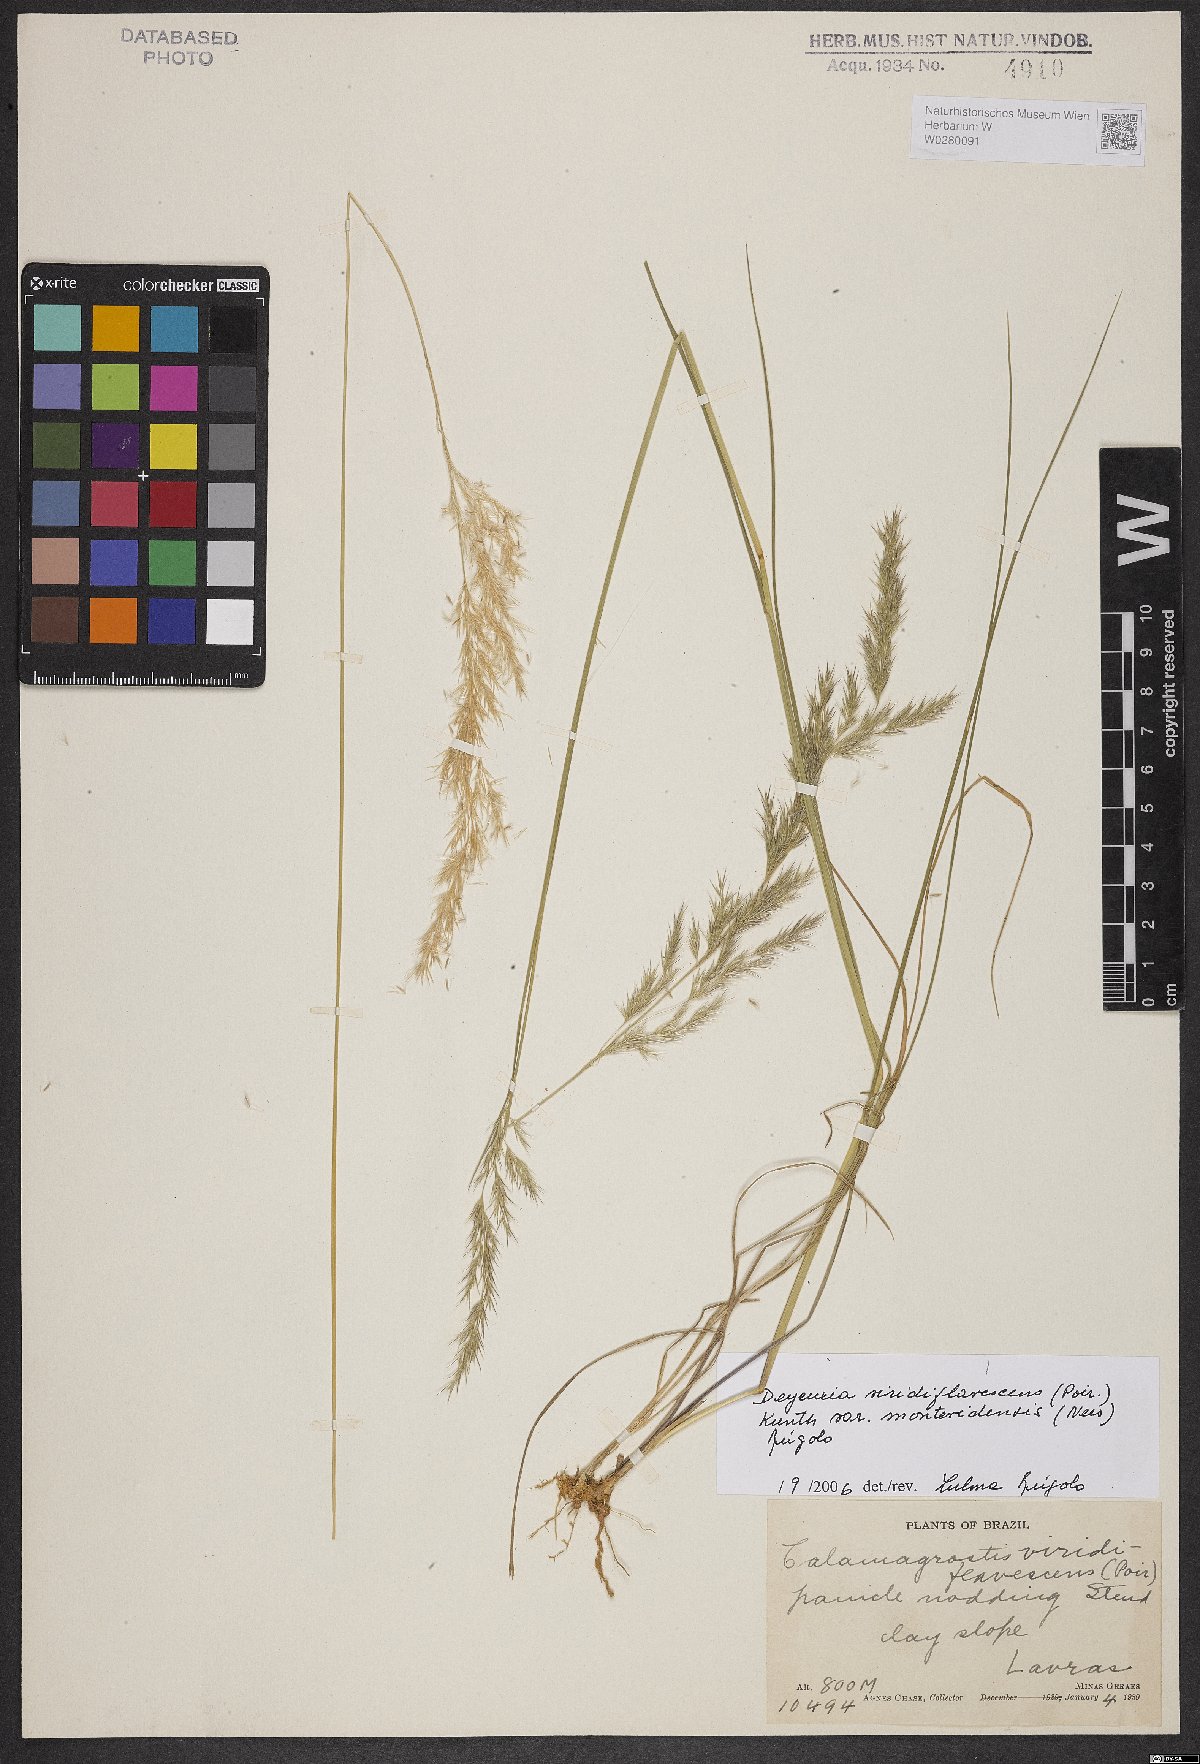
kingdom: Plantae
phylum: Tracheophyta
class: Liliopsida
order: Poales
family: Poaceae
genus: Cinnagrostis
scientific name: Cinnagrostis viridiflavescens
